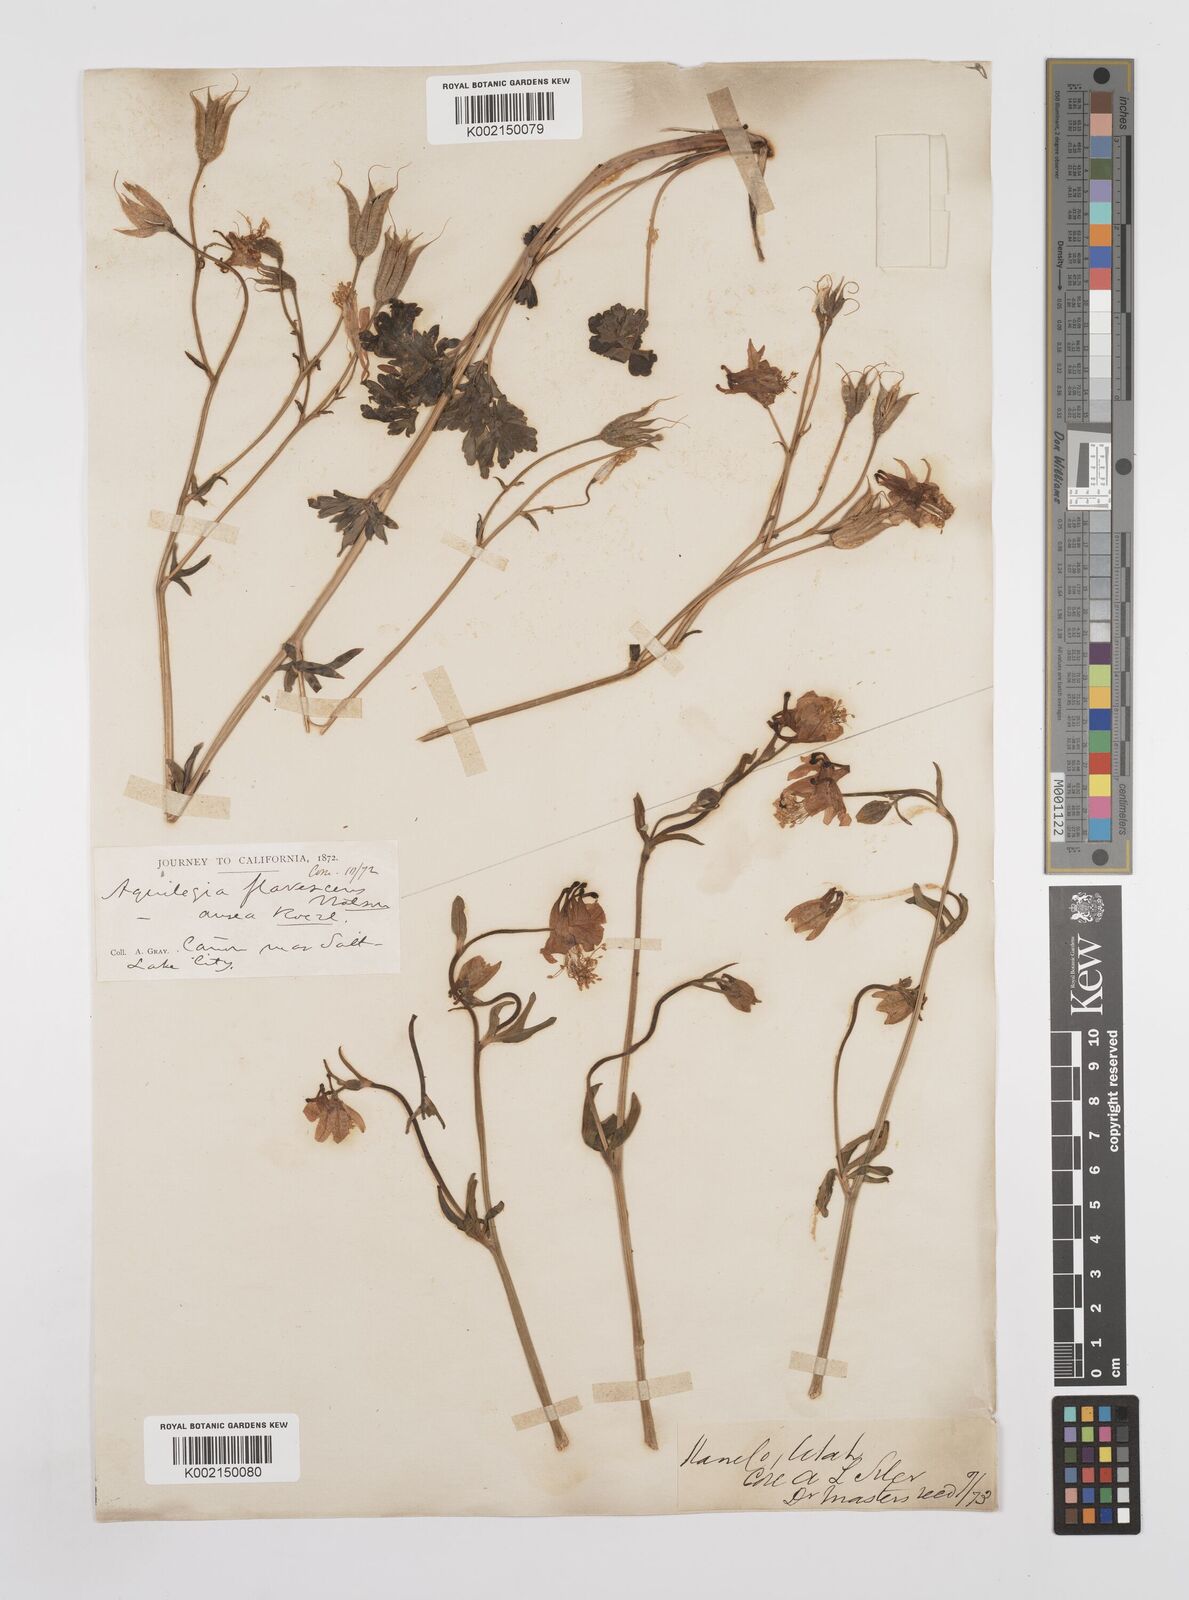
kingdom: Plantae
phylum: Tracheophyta
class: Magnoliopsida
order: Ranunculales
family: Ranunculaceae
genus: Aquilegia
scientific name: Aquilegia flavescens
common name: Yellow columbine
